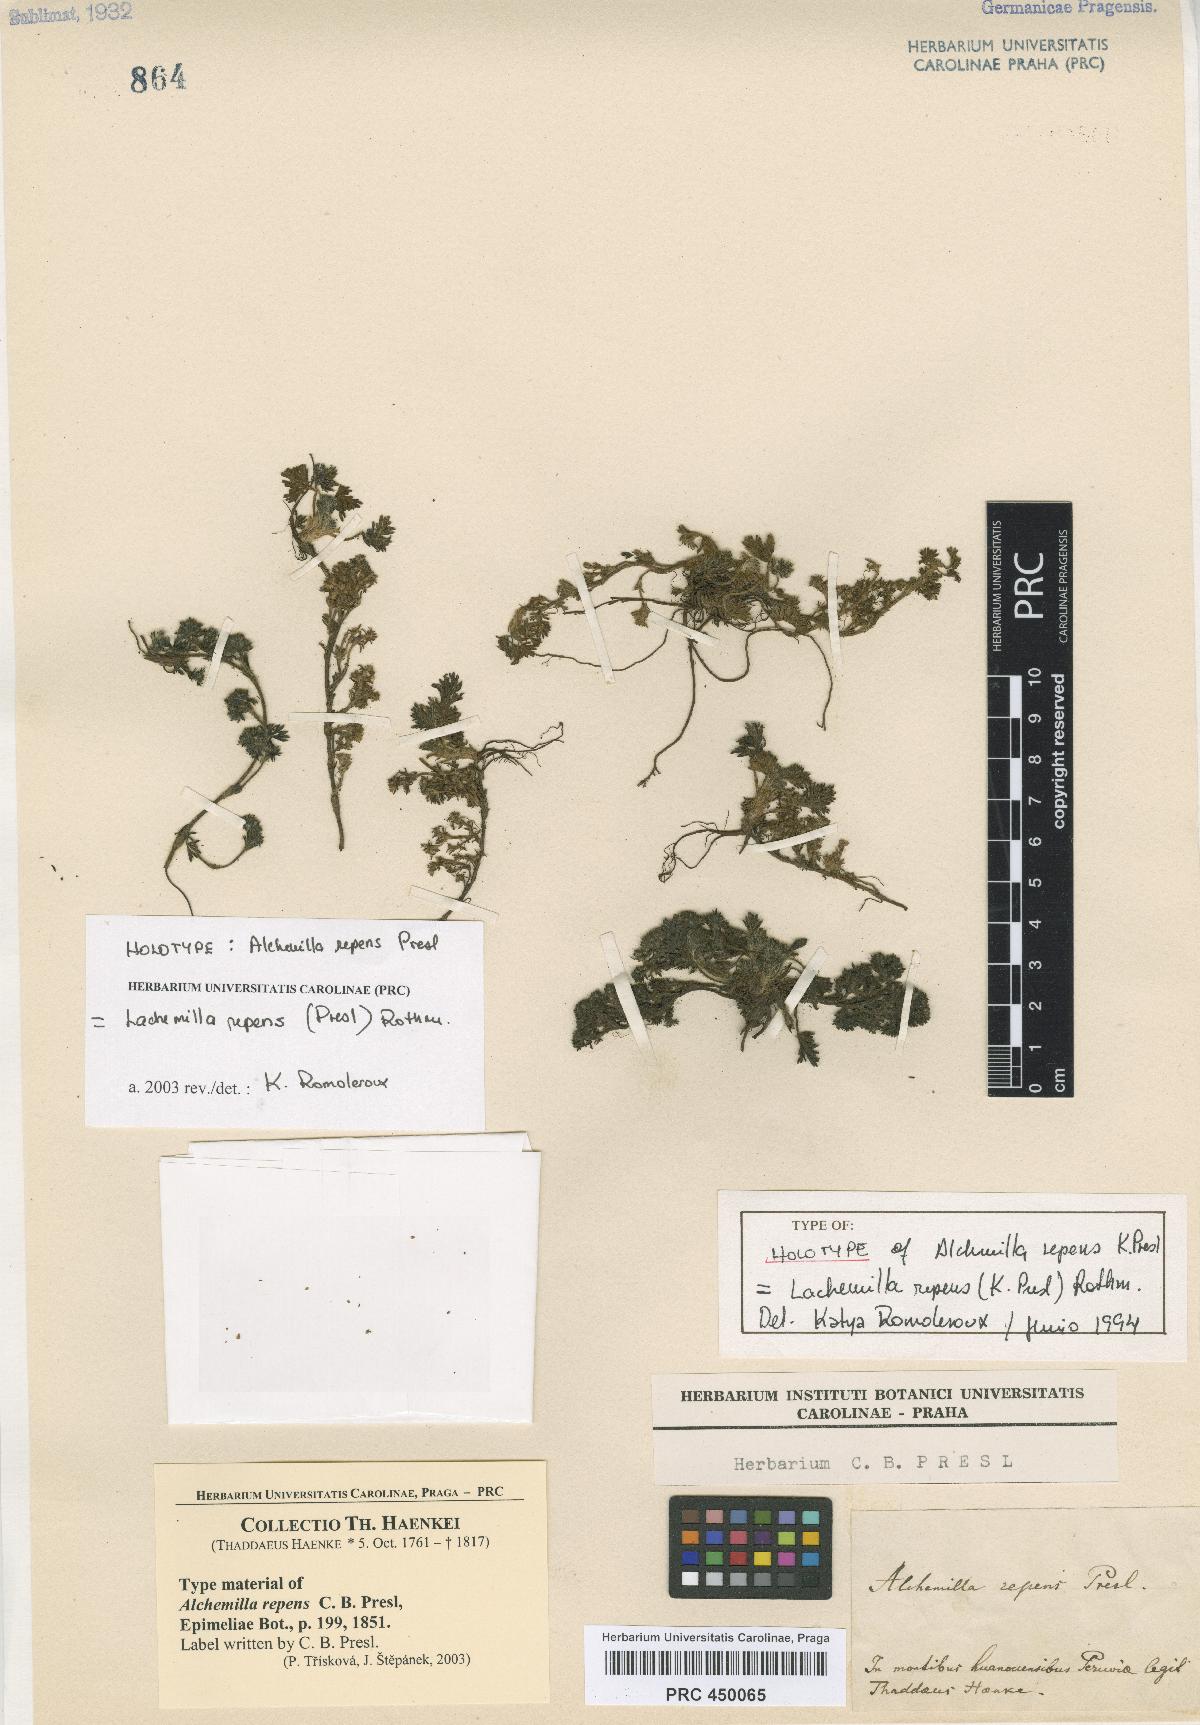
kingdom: Plantae
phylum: Tracheophyta
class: Magnoliopsida
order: Rosales
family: Rosaceae
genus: Lachemilla
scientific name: Lachemilla repens
